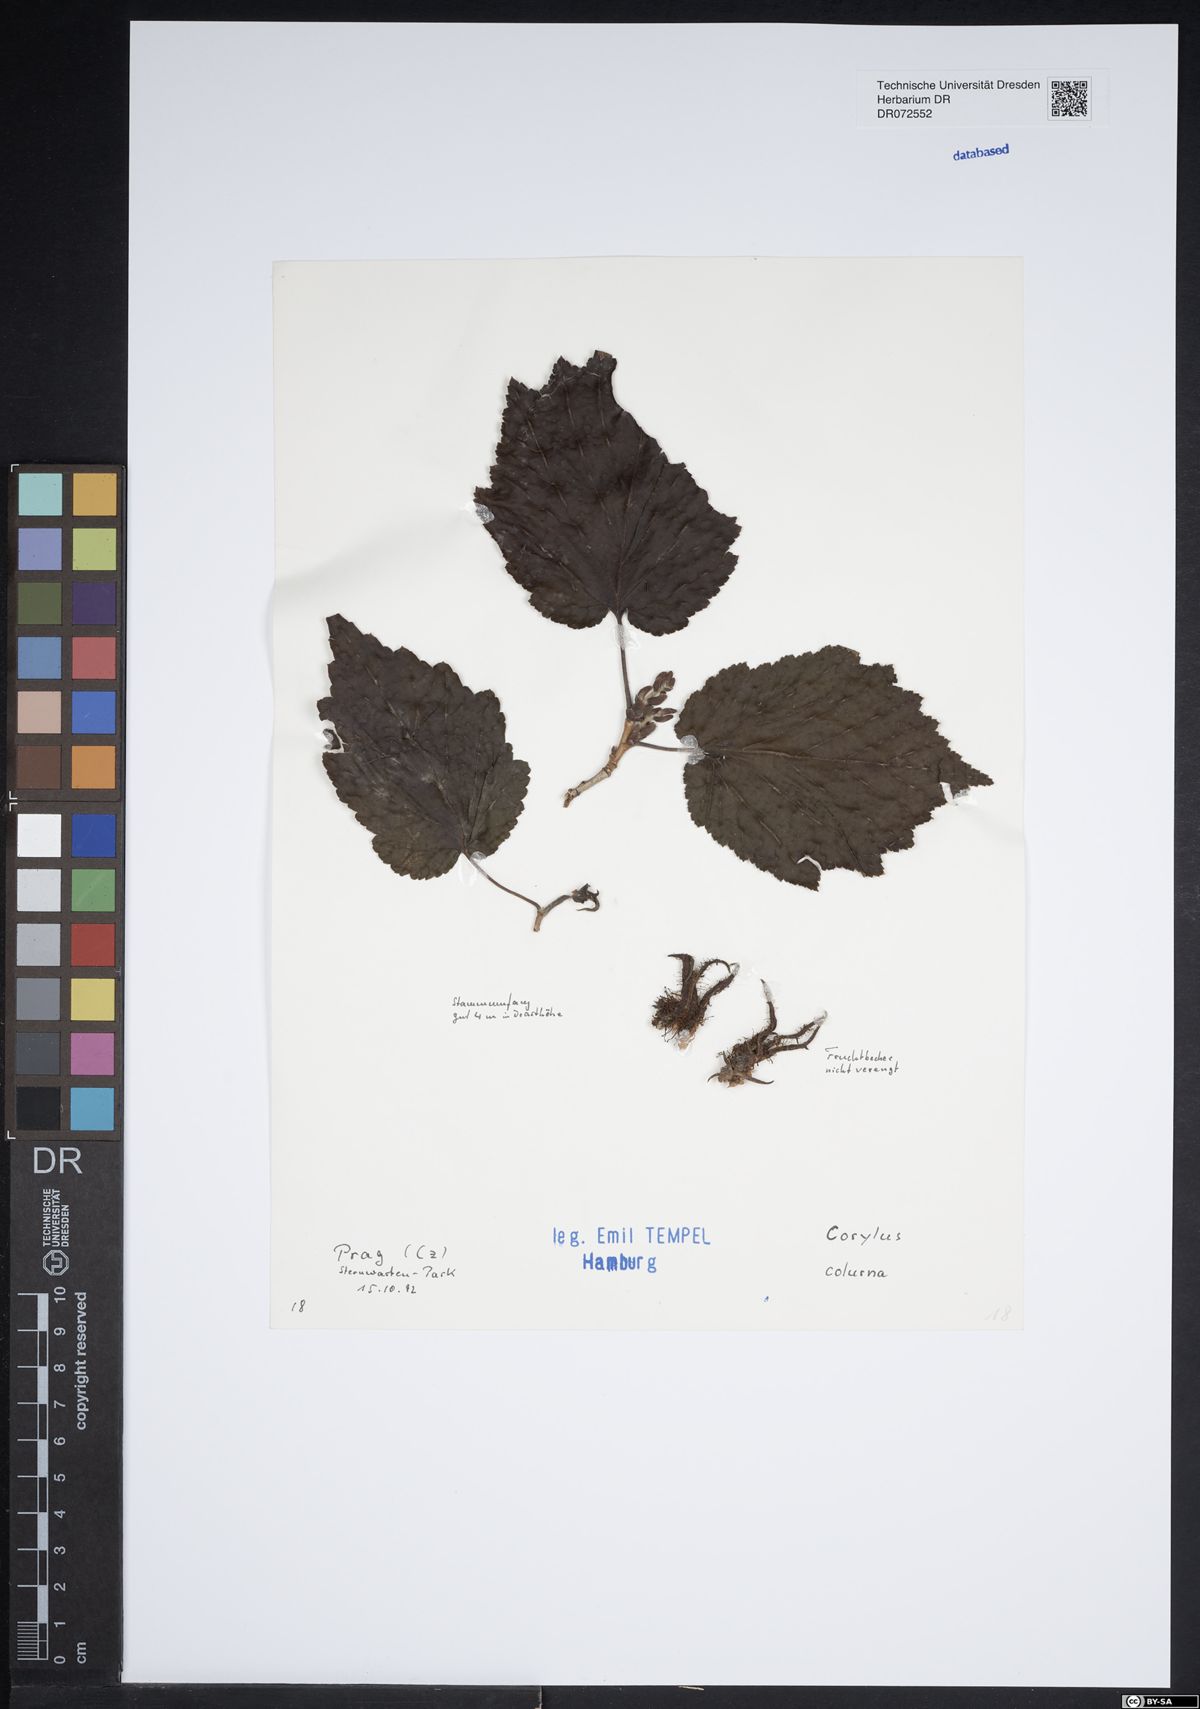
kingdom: Plantae
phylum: Tracheophyta
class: Magnoliopsida
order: Fagales
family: Betulaceae
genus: Corylus
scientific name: Corylus colurna
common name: Turkish hazel
